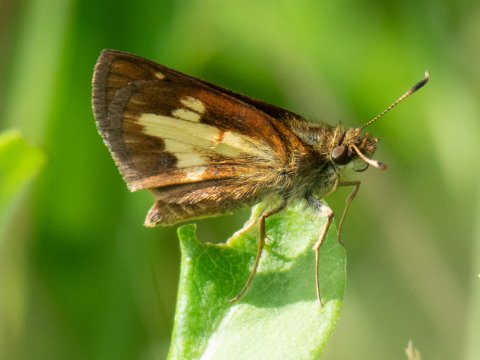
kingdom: Animalia
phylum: Arthropoda
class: Insecta
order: Lepidoptera
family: Hesperiidae
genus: Poanes
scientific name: Poanes massasoit
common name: Mulberry Wing
